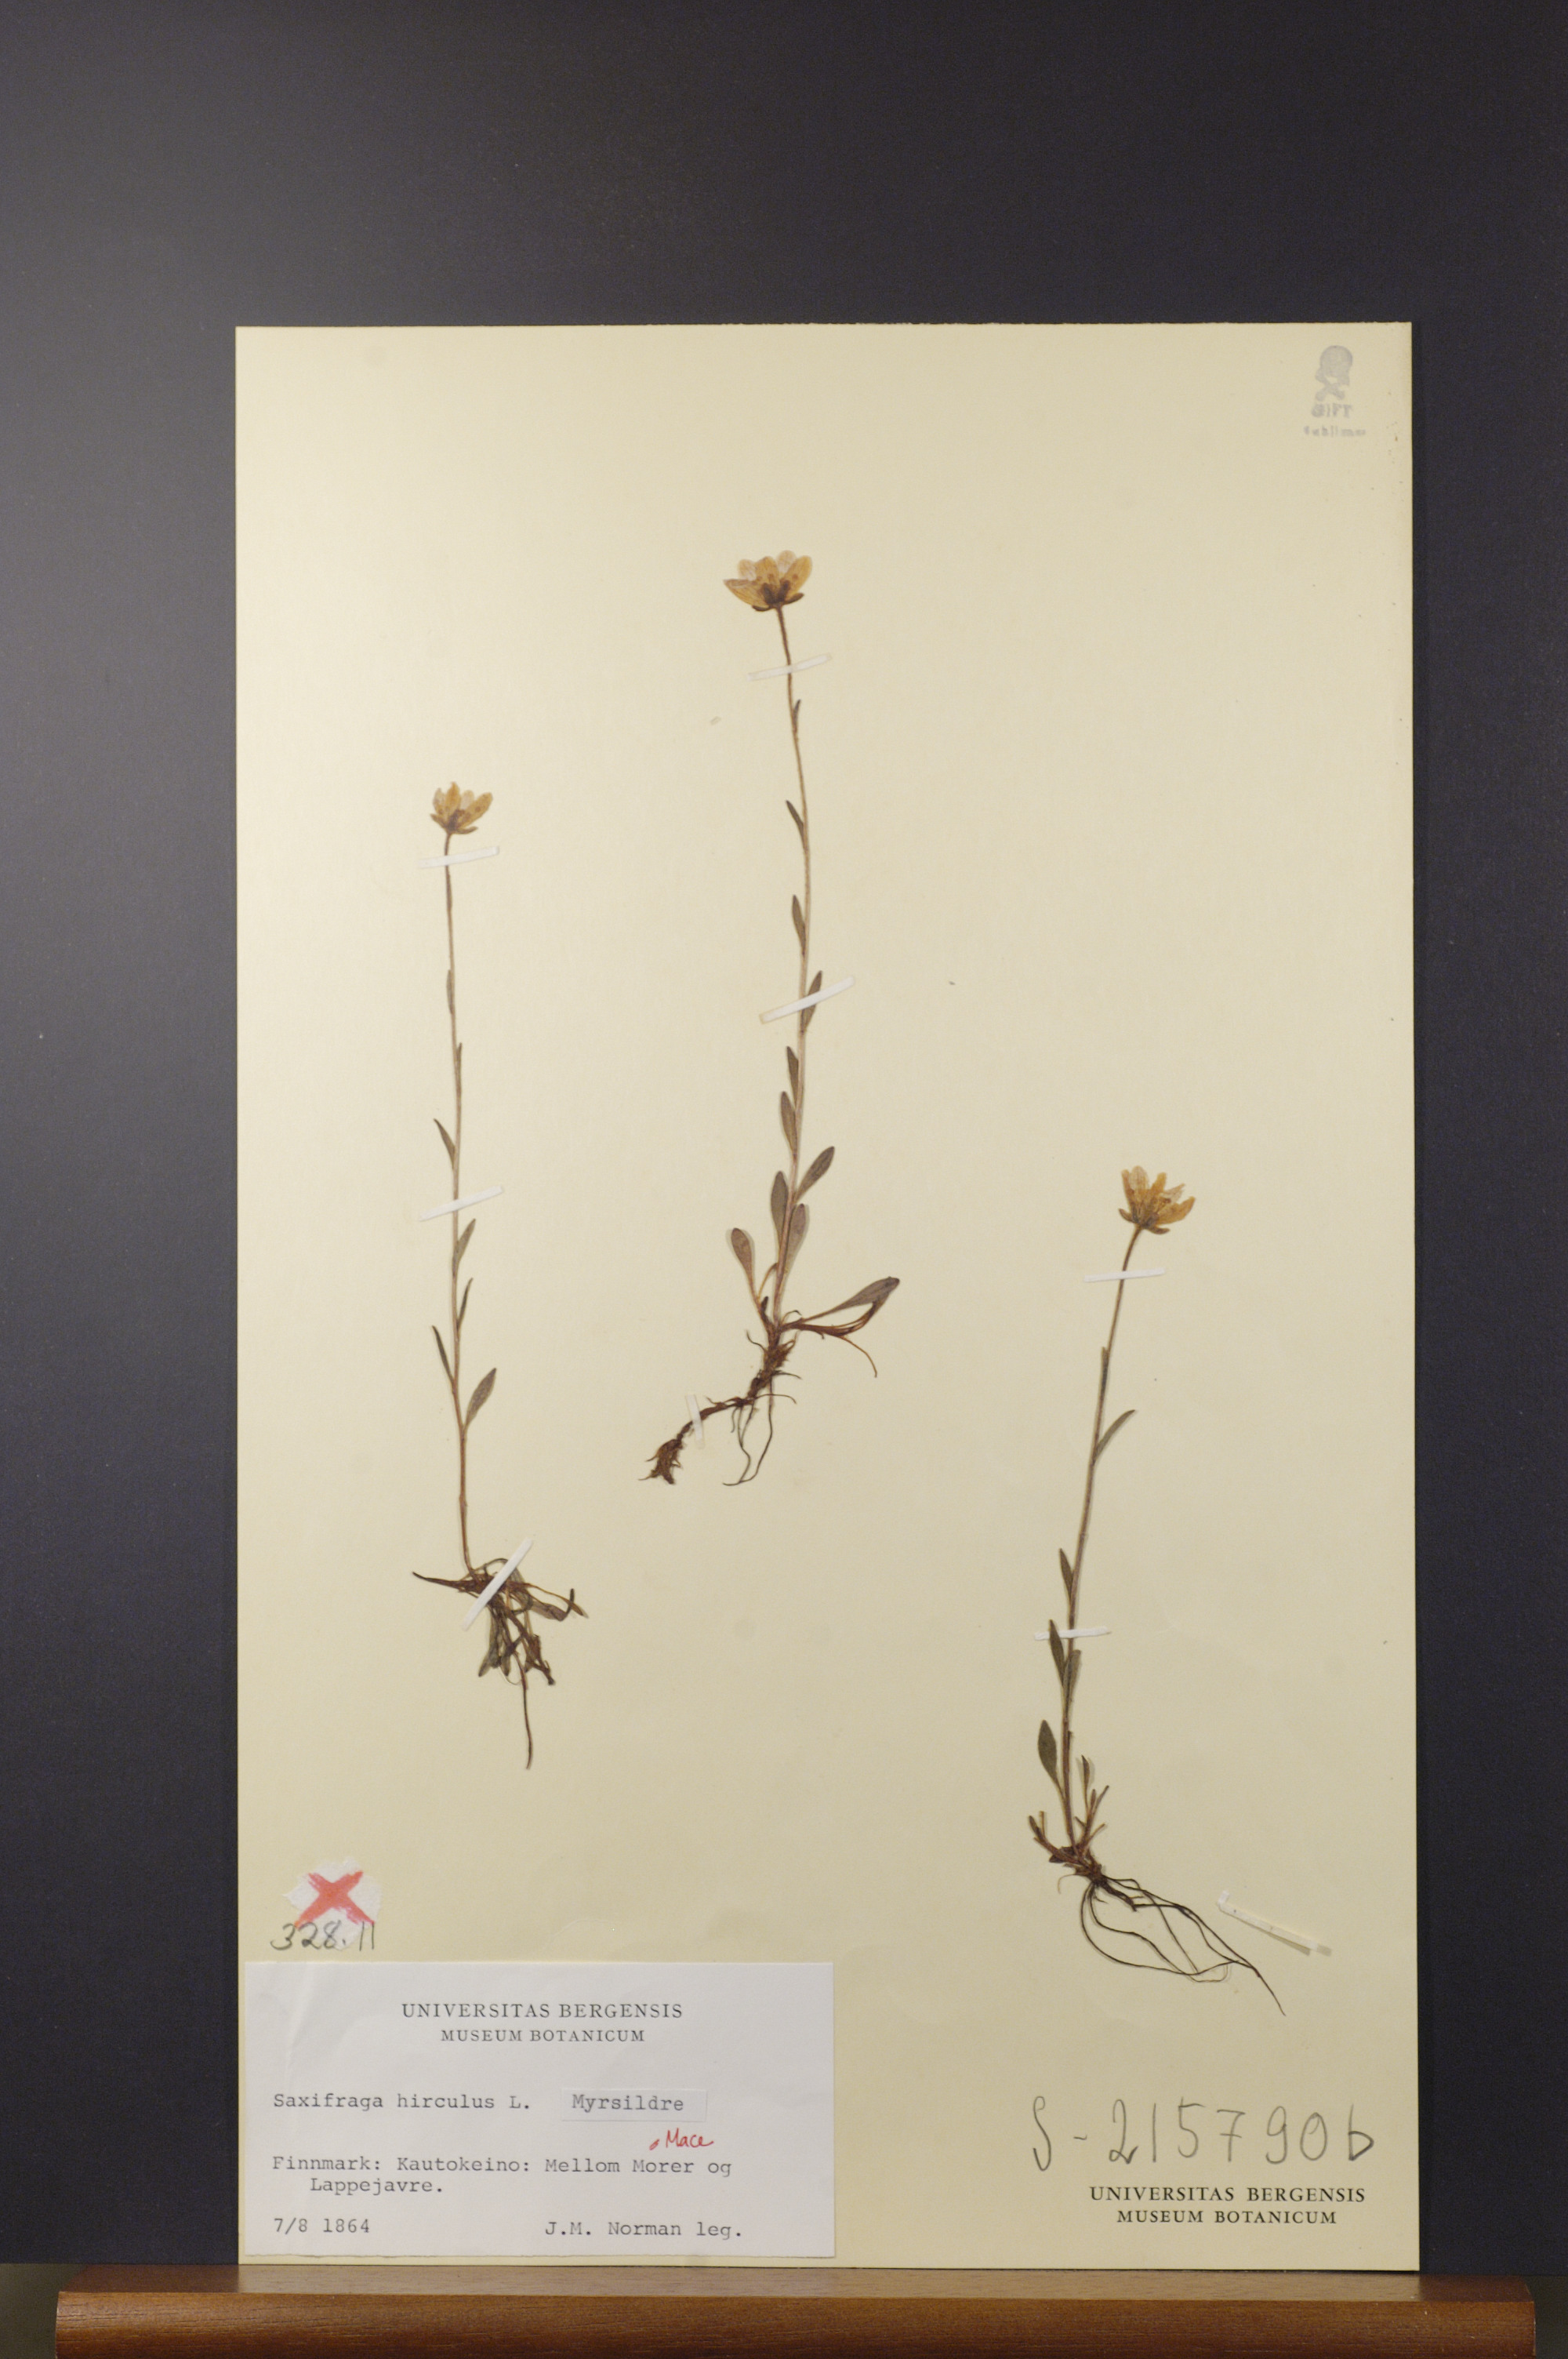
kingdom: Plantae
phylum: Tracheophyta
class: Magnoliopsida
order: Saxifragales
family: Saxifragaceae
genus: Micranthes
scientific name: Micranthes hieraciifolia
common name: Hawkweed-leaved saxifrage
